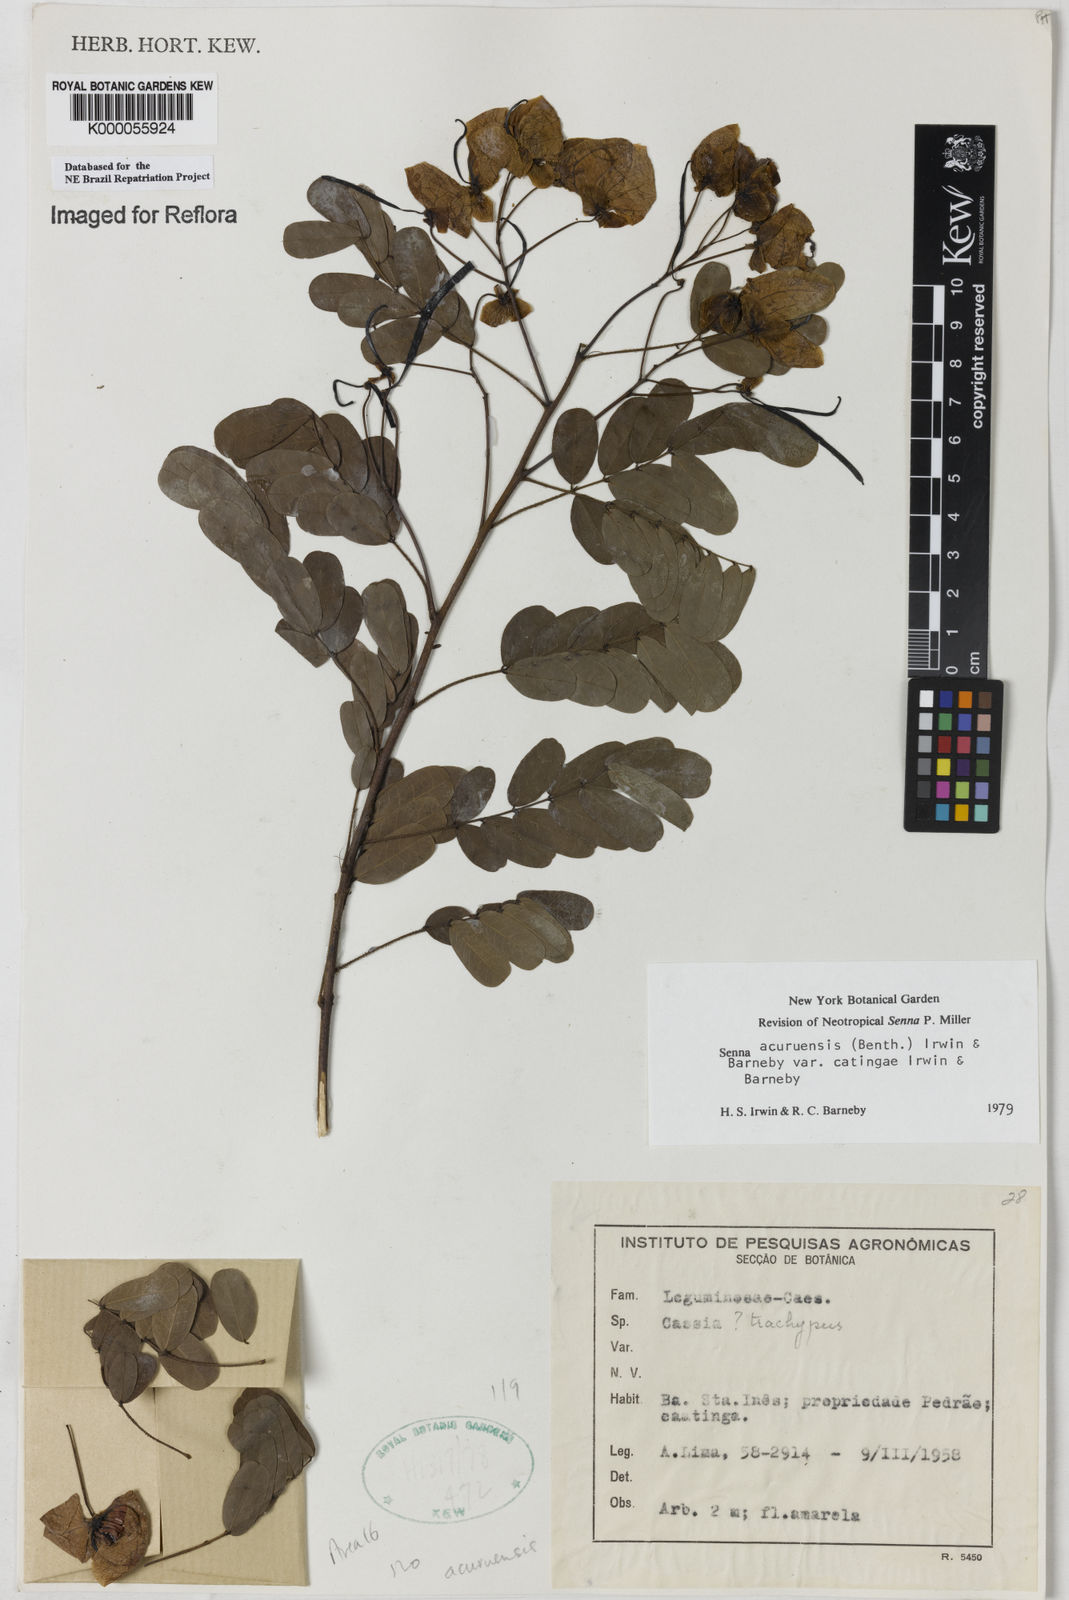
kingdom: Plantae
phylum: Tracheophyta
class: Magnoliopsida
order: Fabales
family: Fabaceae
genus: Senna
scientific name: Senna catingae
